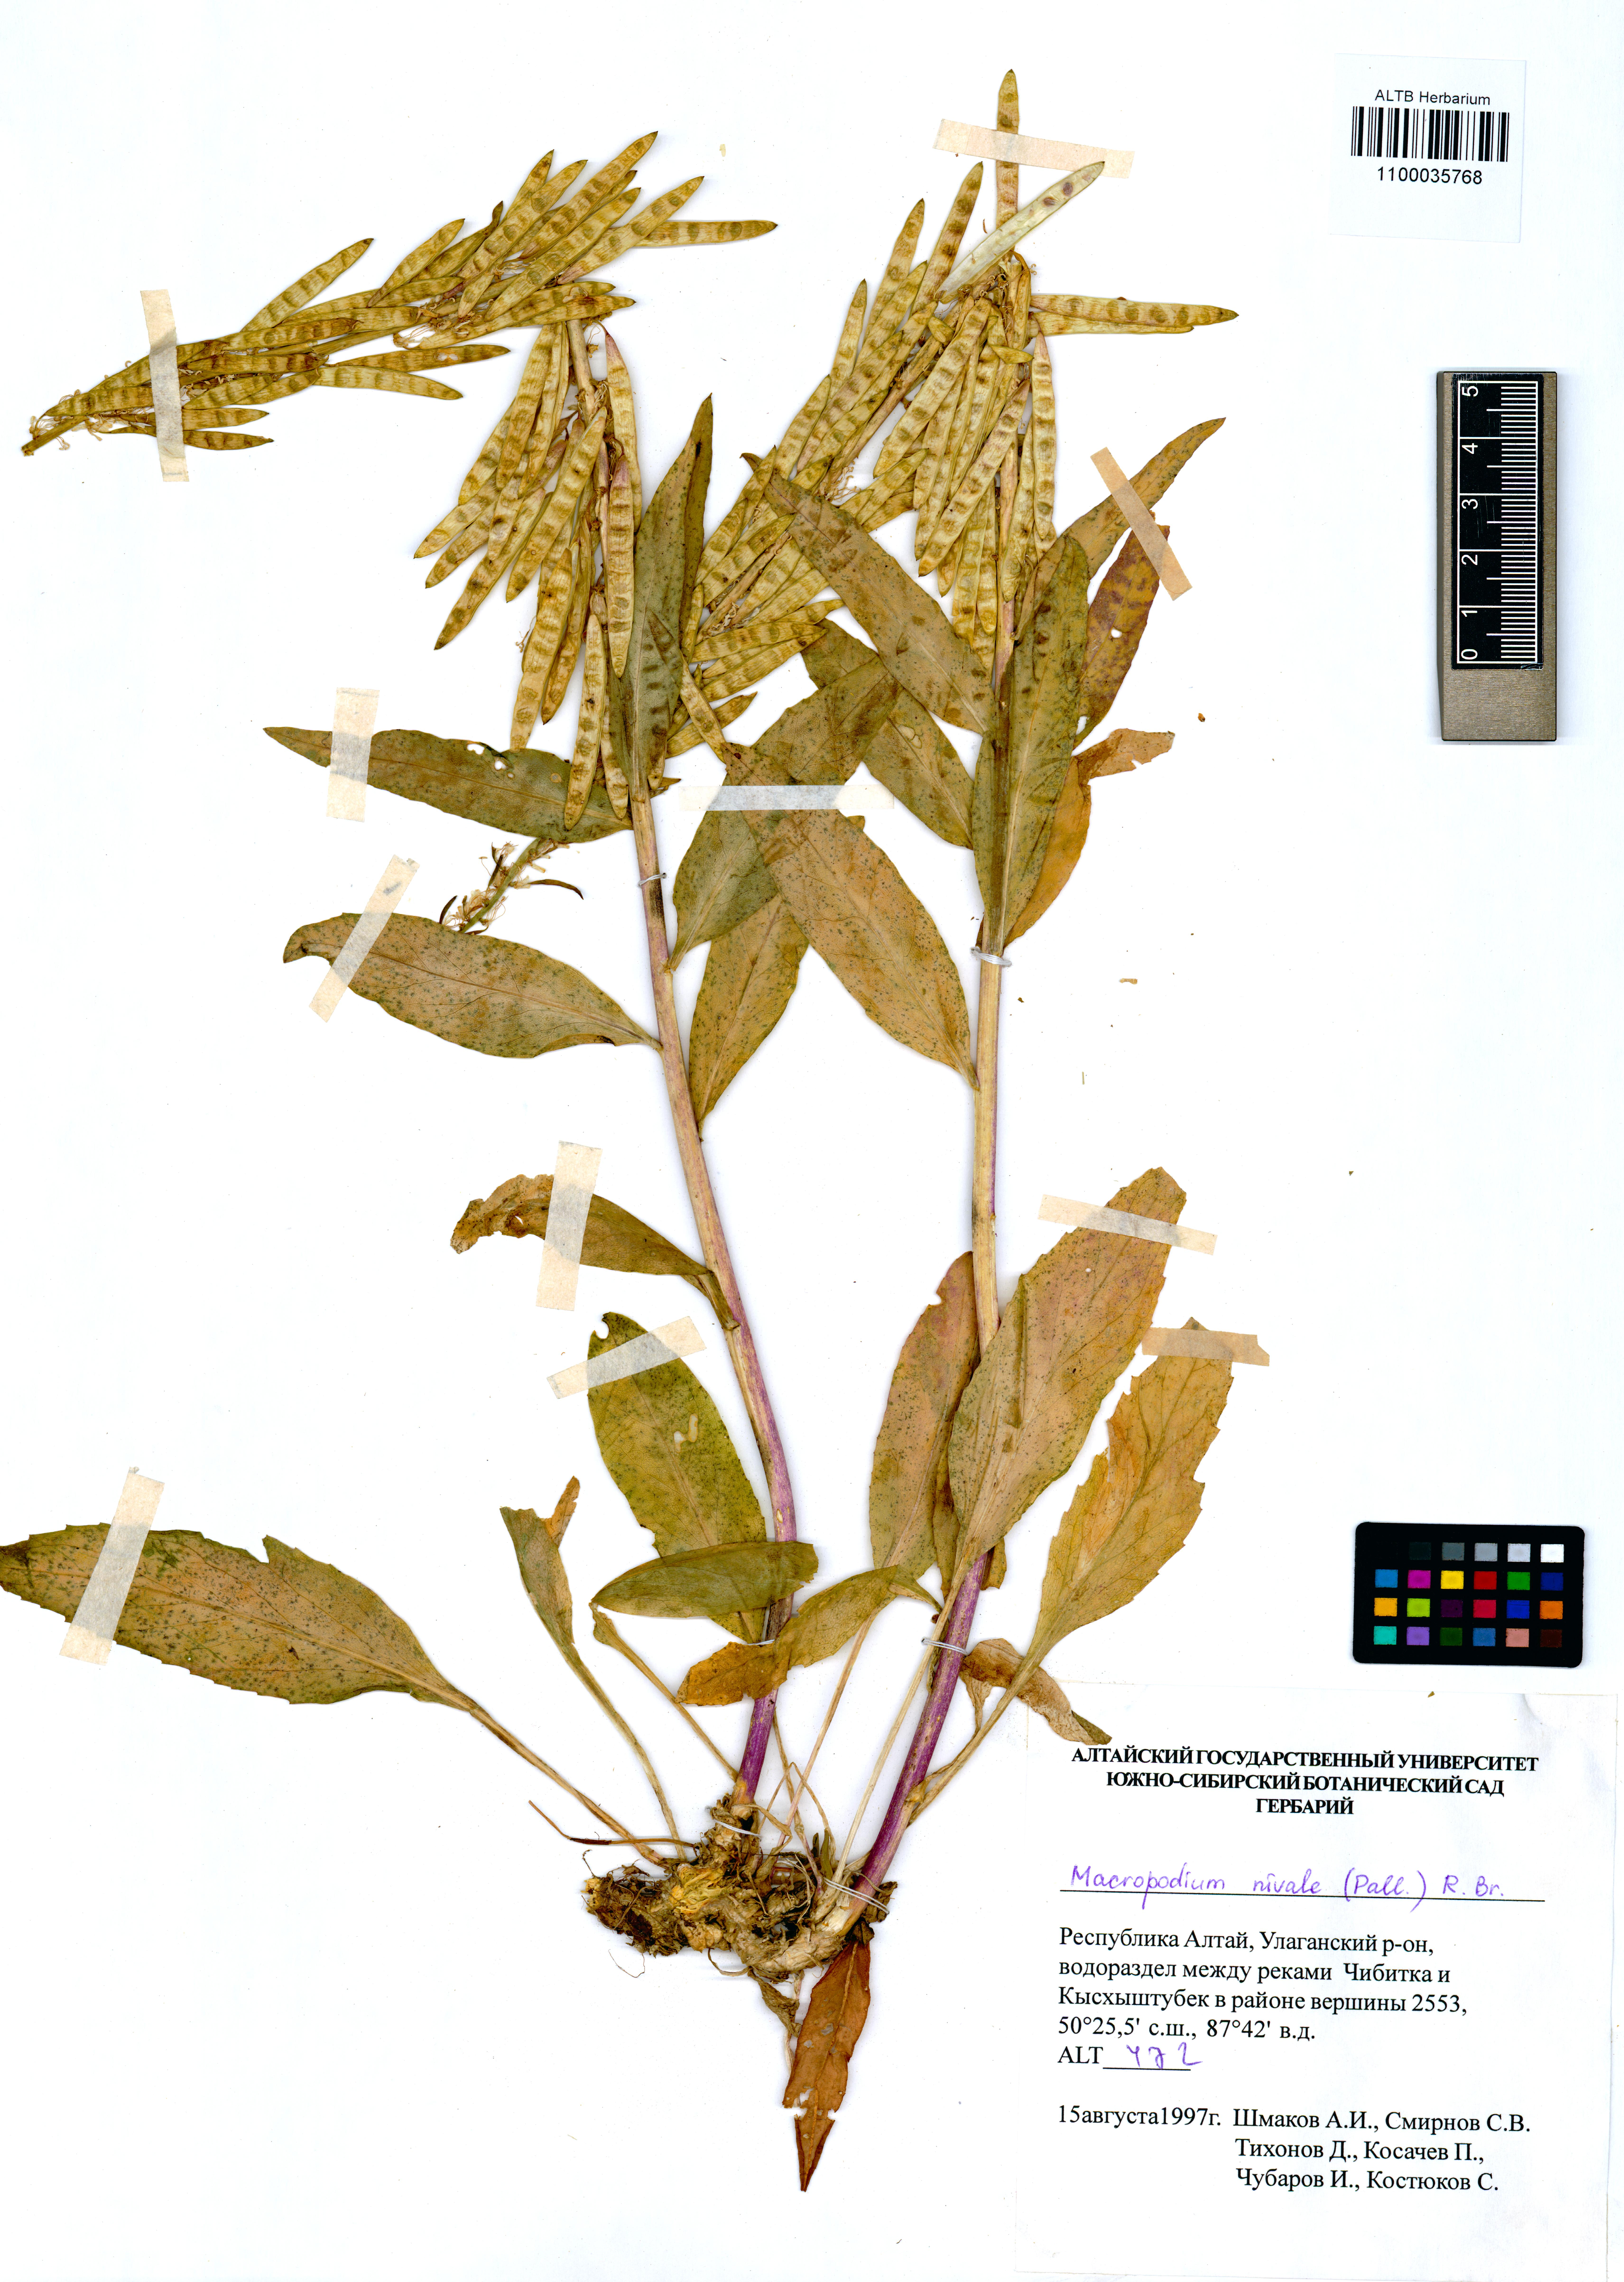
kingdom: Plantae
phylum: Tracheophyta
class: Magnoliopsida
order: Brassicales
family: Brassicaceae
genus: Macropodium
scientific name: Macropodium nivale
